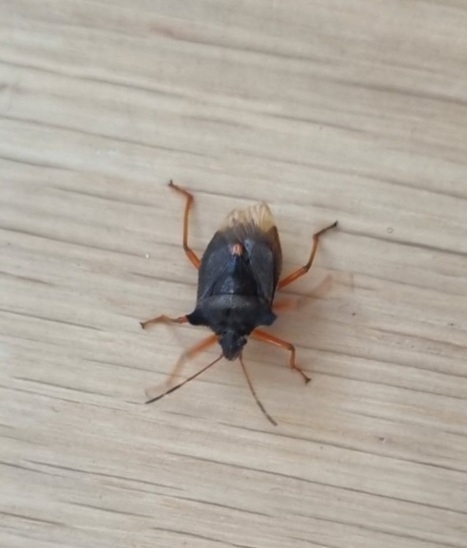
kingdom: Animalia
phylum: Arthropoda
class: Insecta
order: Hemiptera
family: Pentatomidae
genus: Pentatoma
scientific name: Pentatoma rufipes
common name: Rødbenet bredtæge
